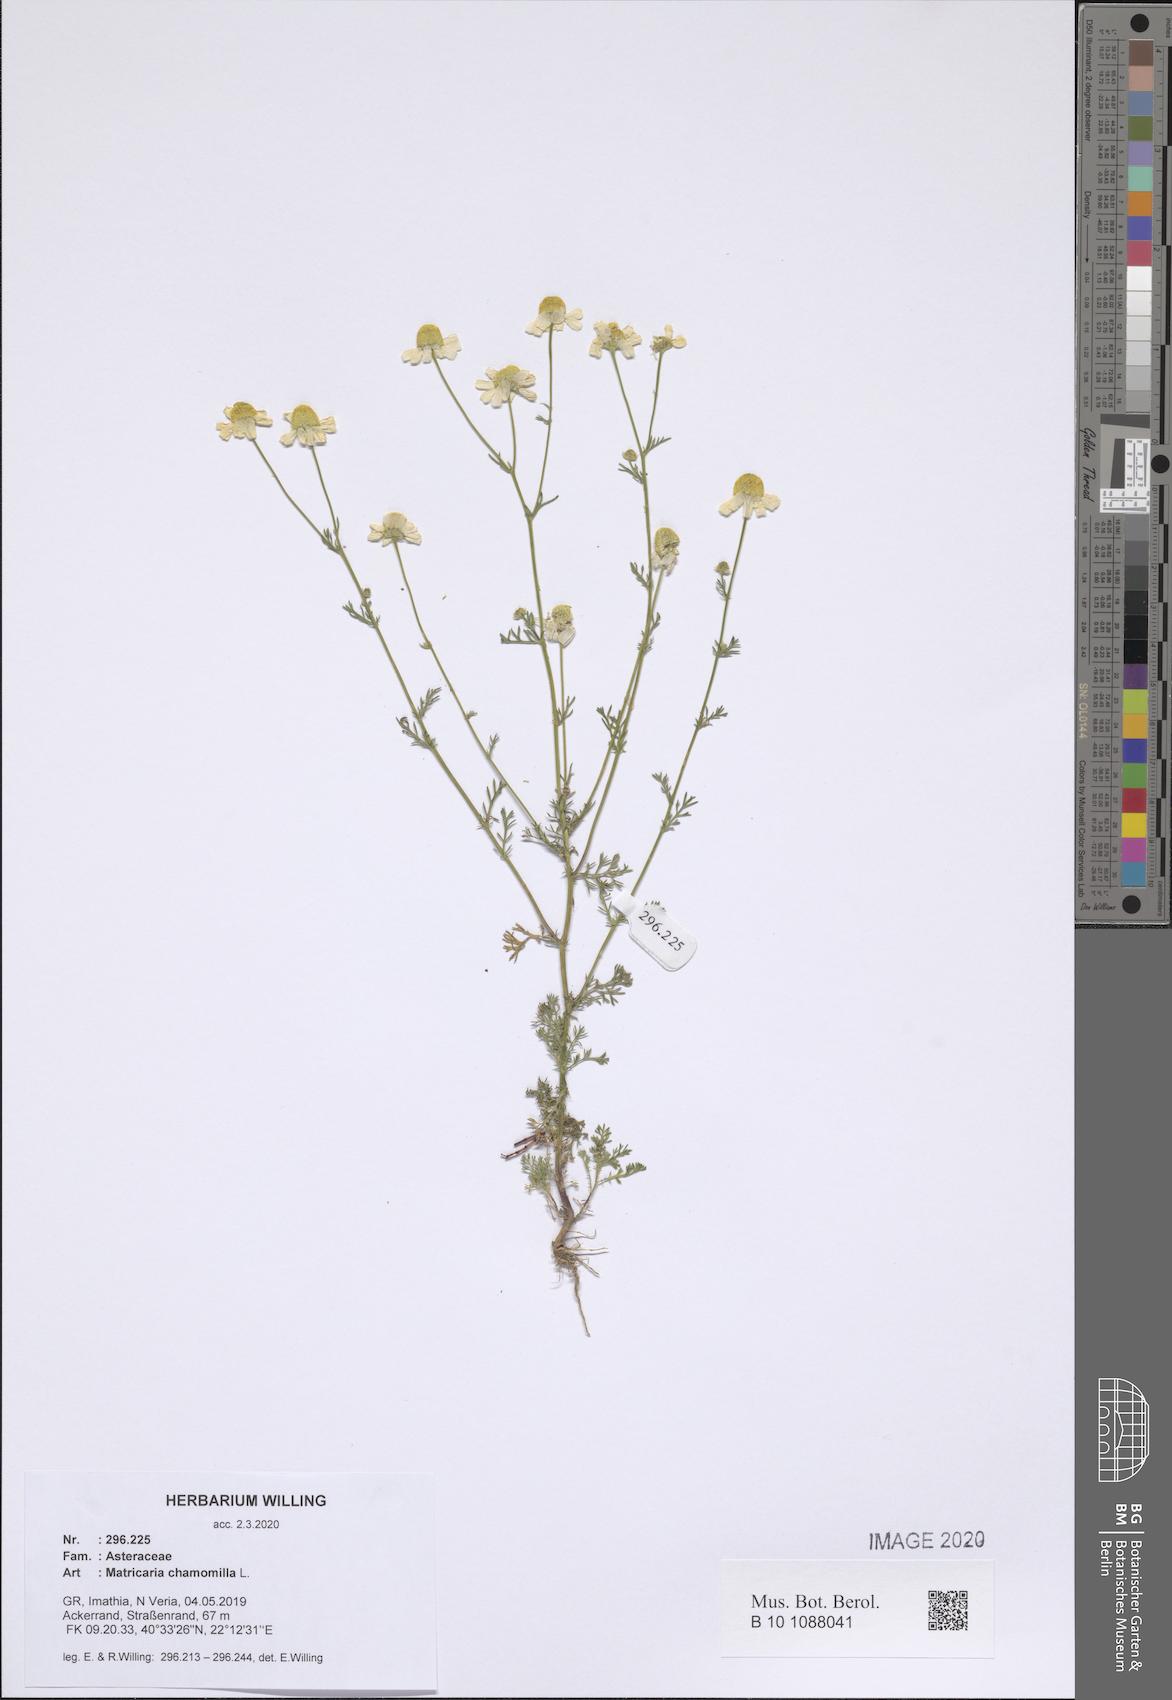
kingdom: Plantae
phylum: Tracheophyta
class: Magnoliopsida
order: Asterales
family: Asteraceae
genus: Matricaria
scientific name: Matricaria chamomilla
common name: Scented mayweed
